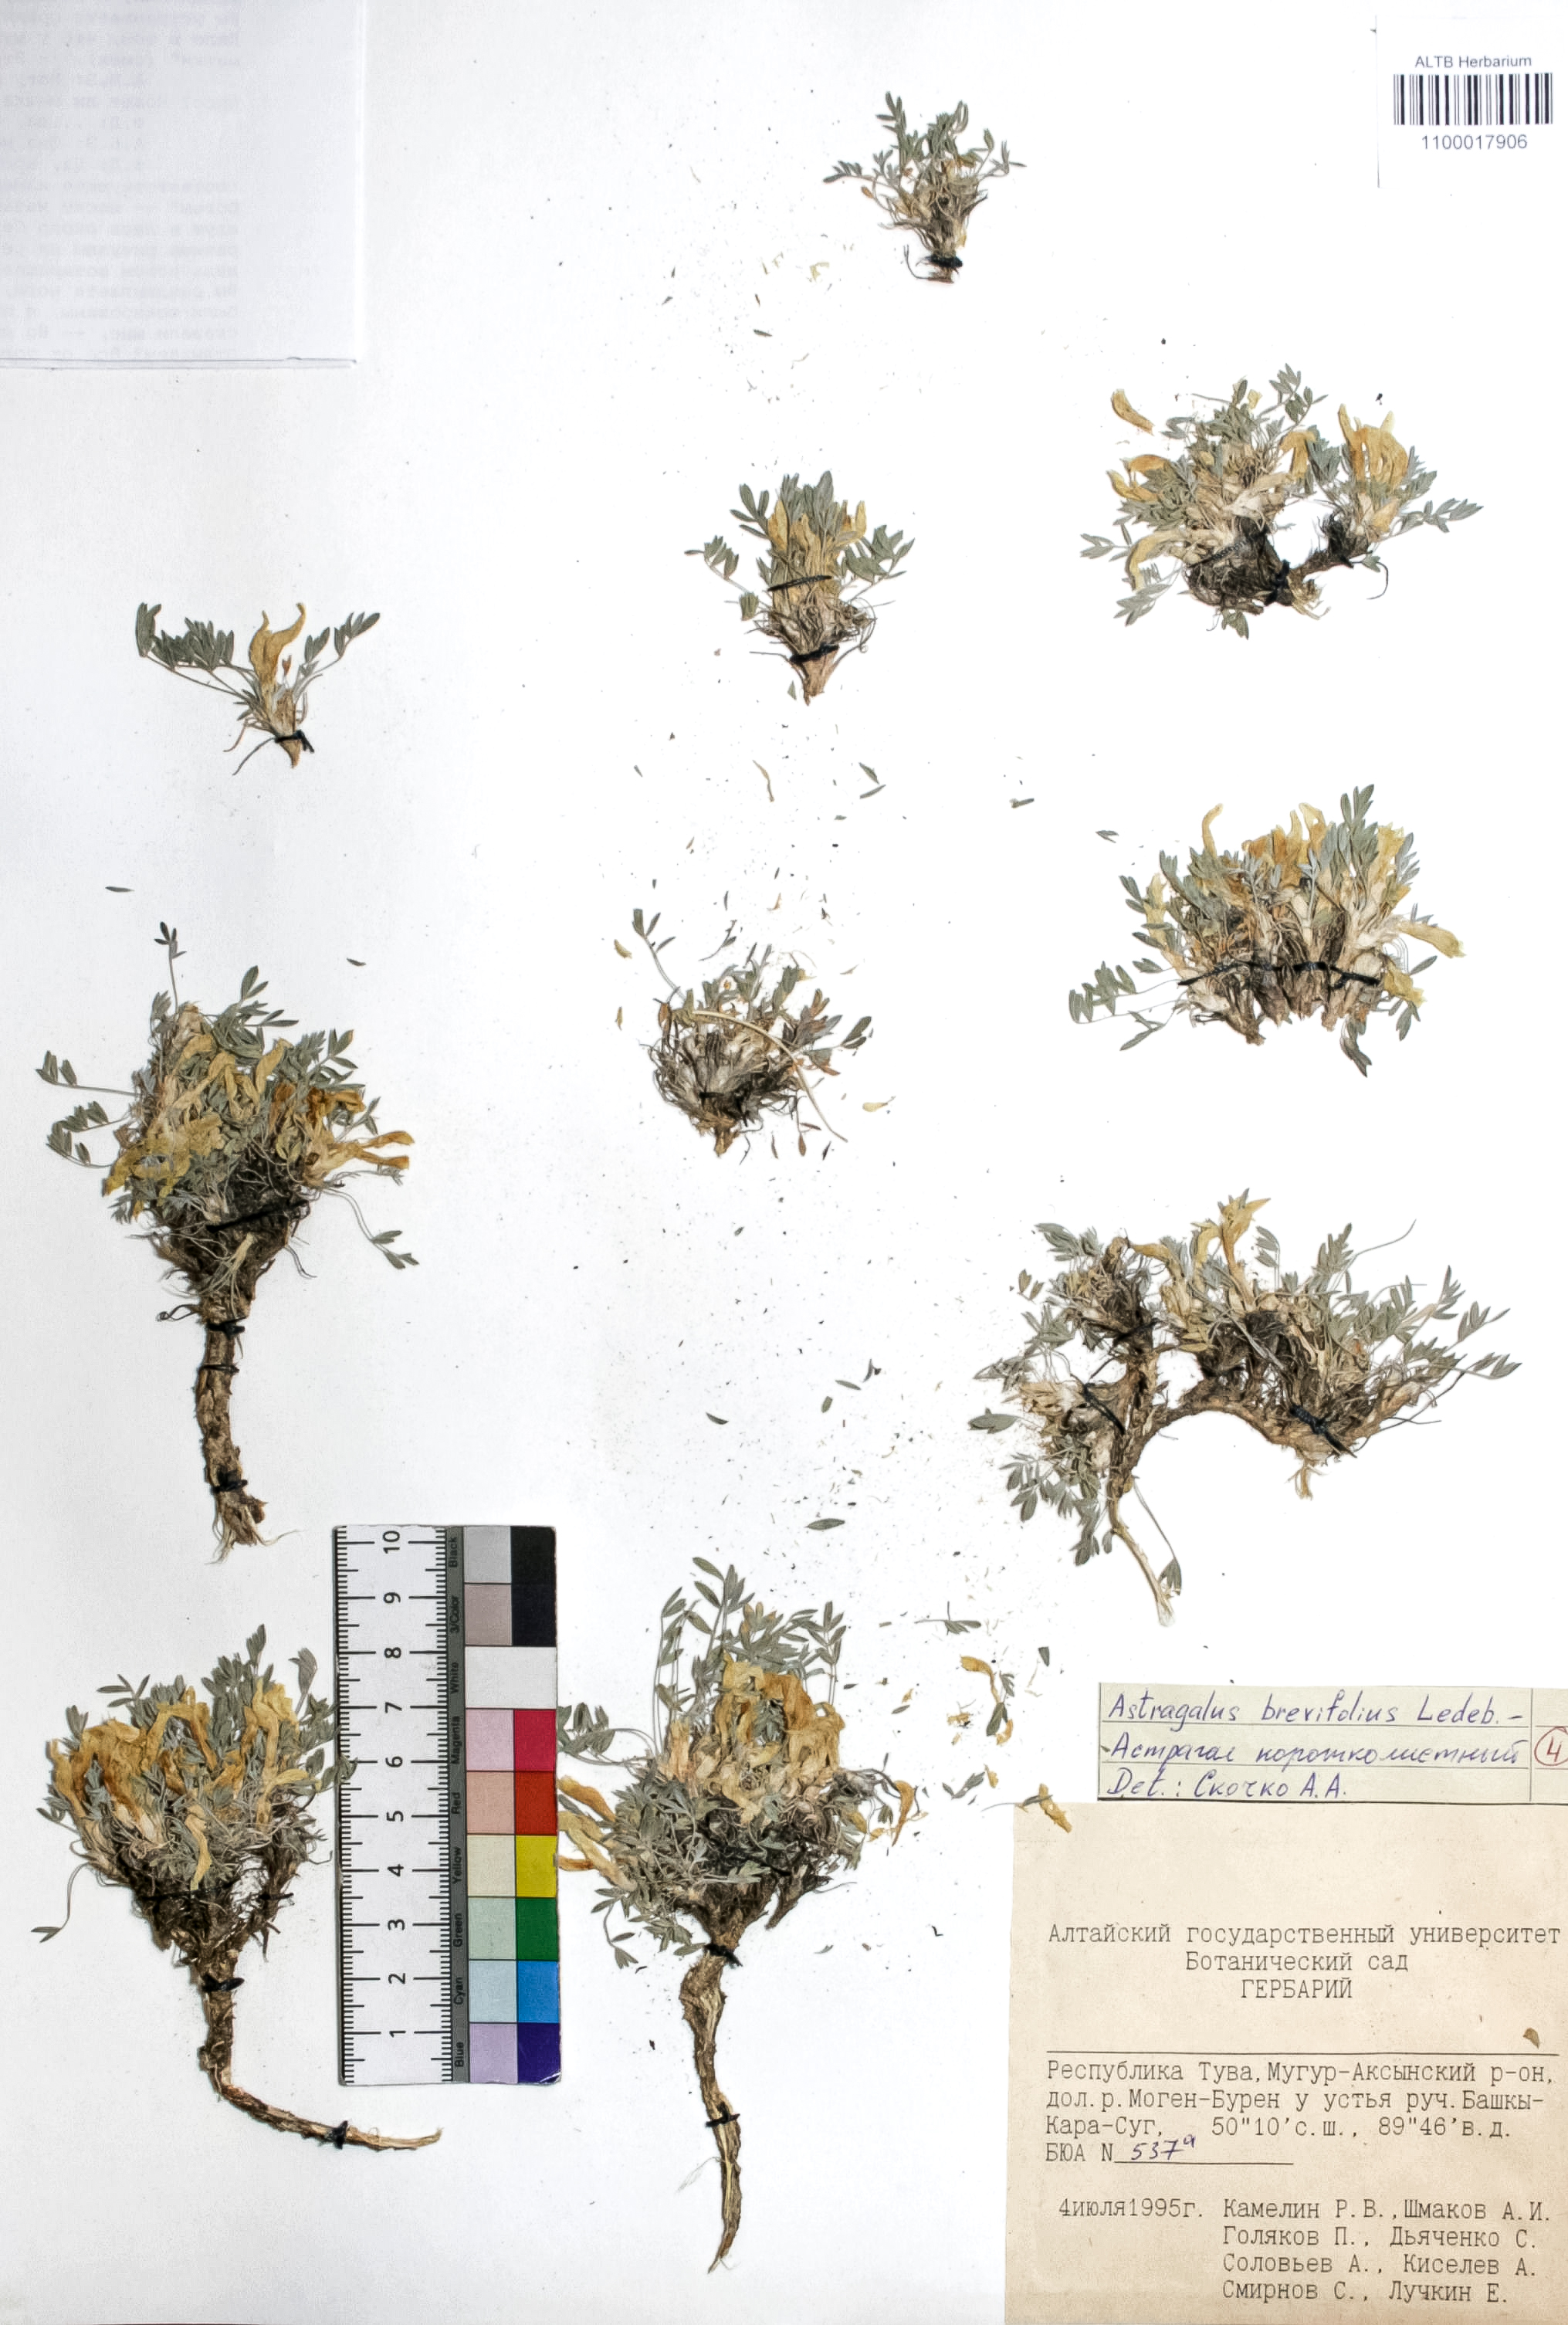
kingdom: Plantae
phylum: Tracheophyta
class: Magnoliopsida
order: Fabales
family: Fabaceae
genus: Astragalus
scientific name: Astragalus brevifolius
